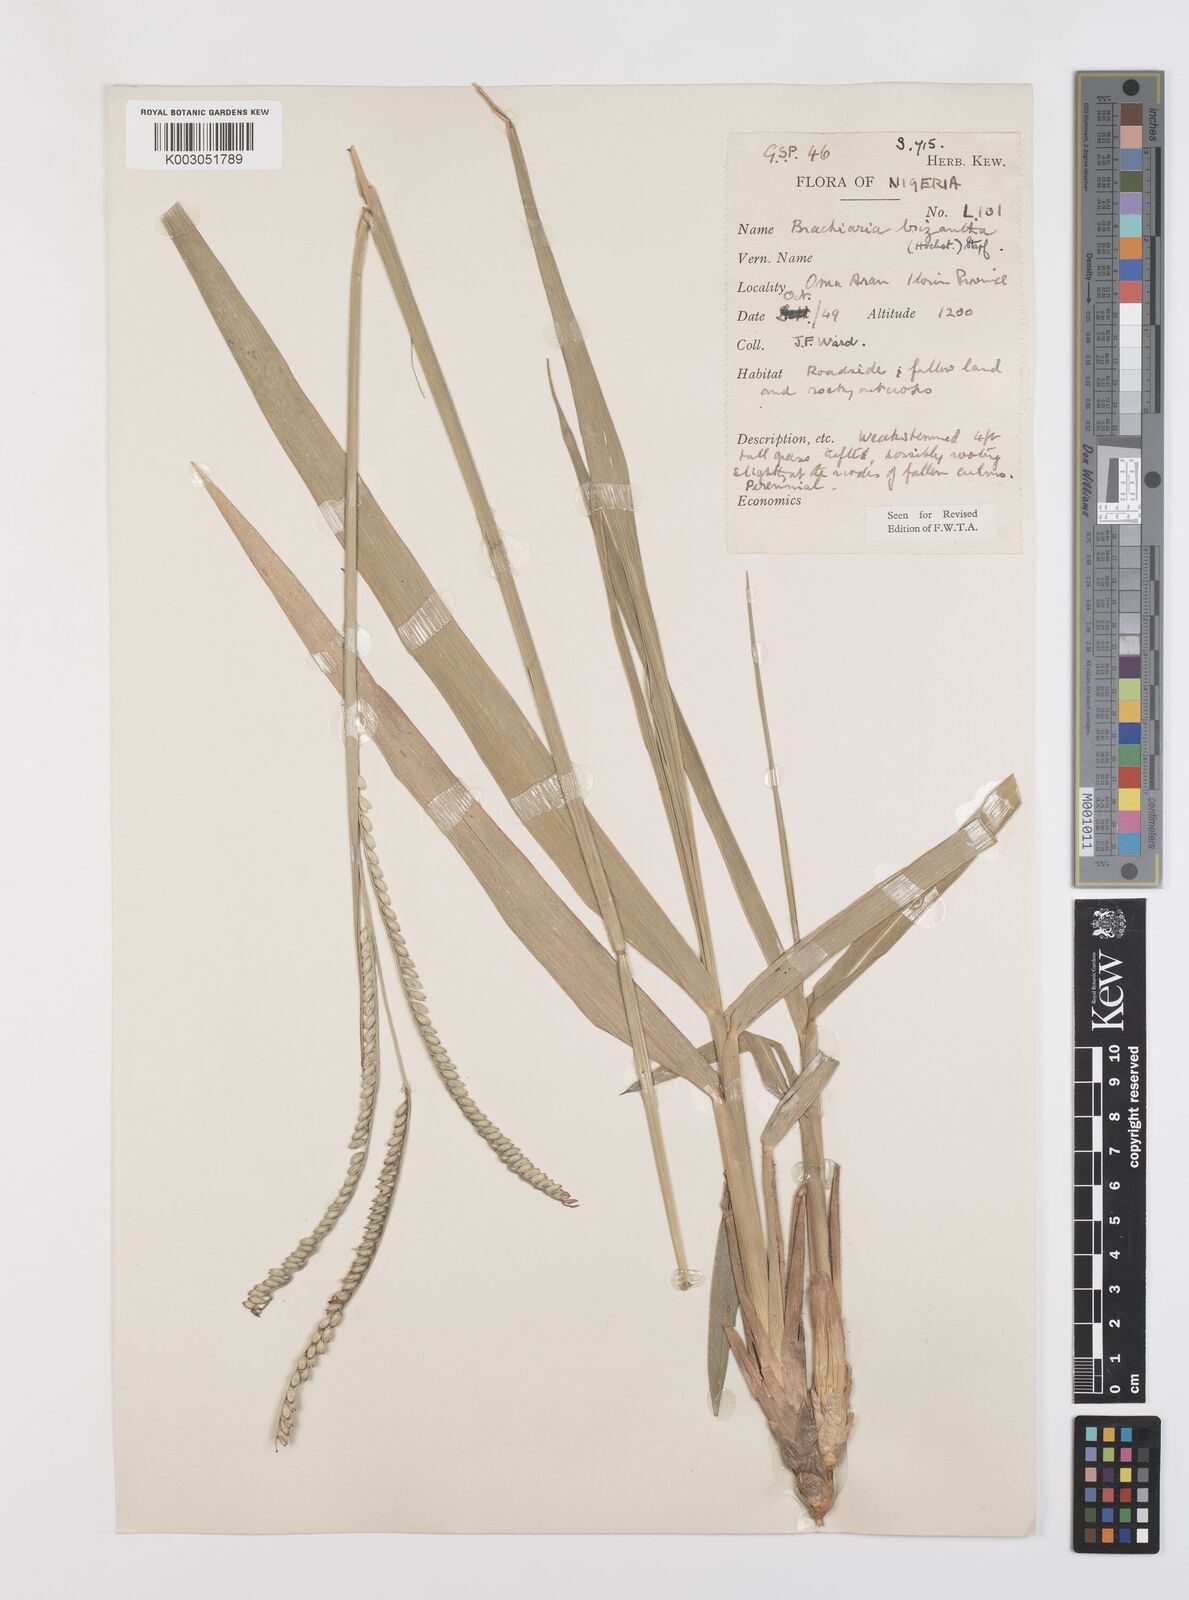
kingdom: Plantae
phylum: Tracheophyta
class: Liliopsida
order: Poales
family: Poaceae
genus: Urochloa
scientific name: Urochloa brizantha
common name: Palisade signalgrass
